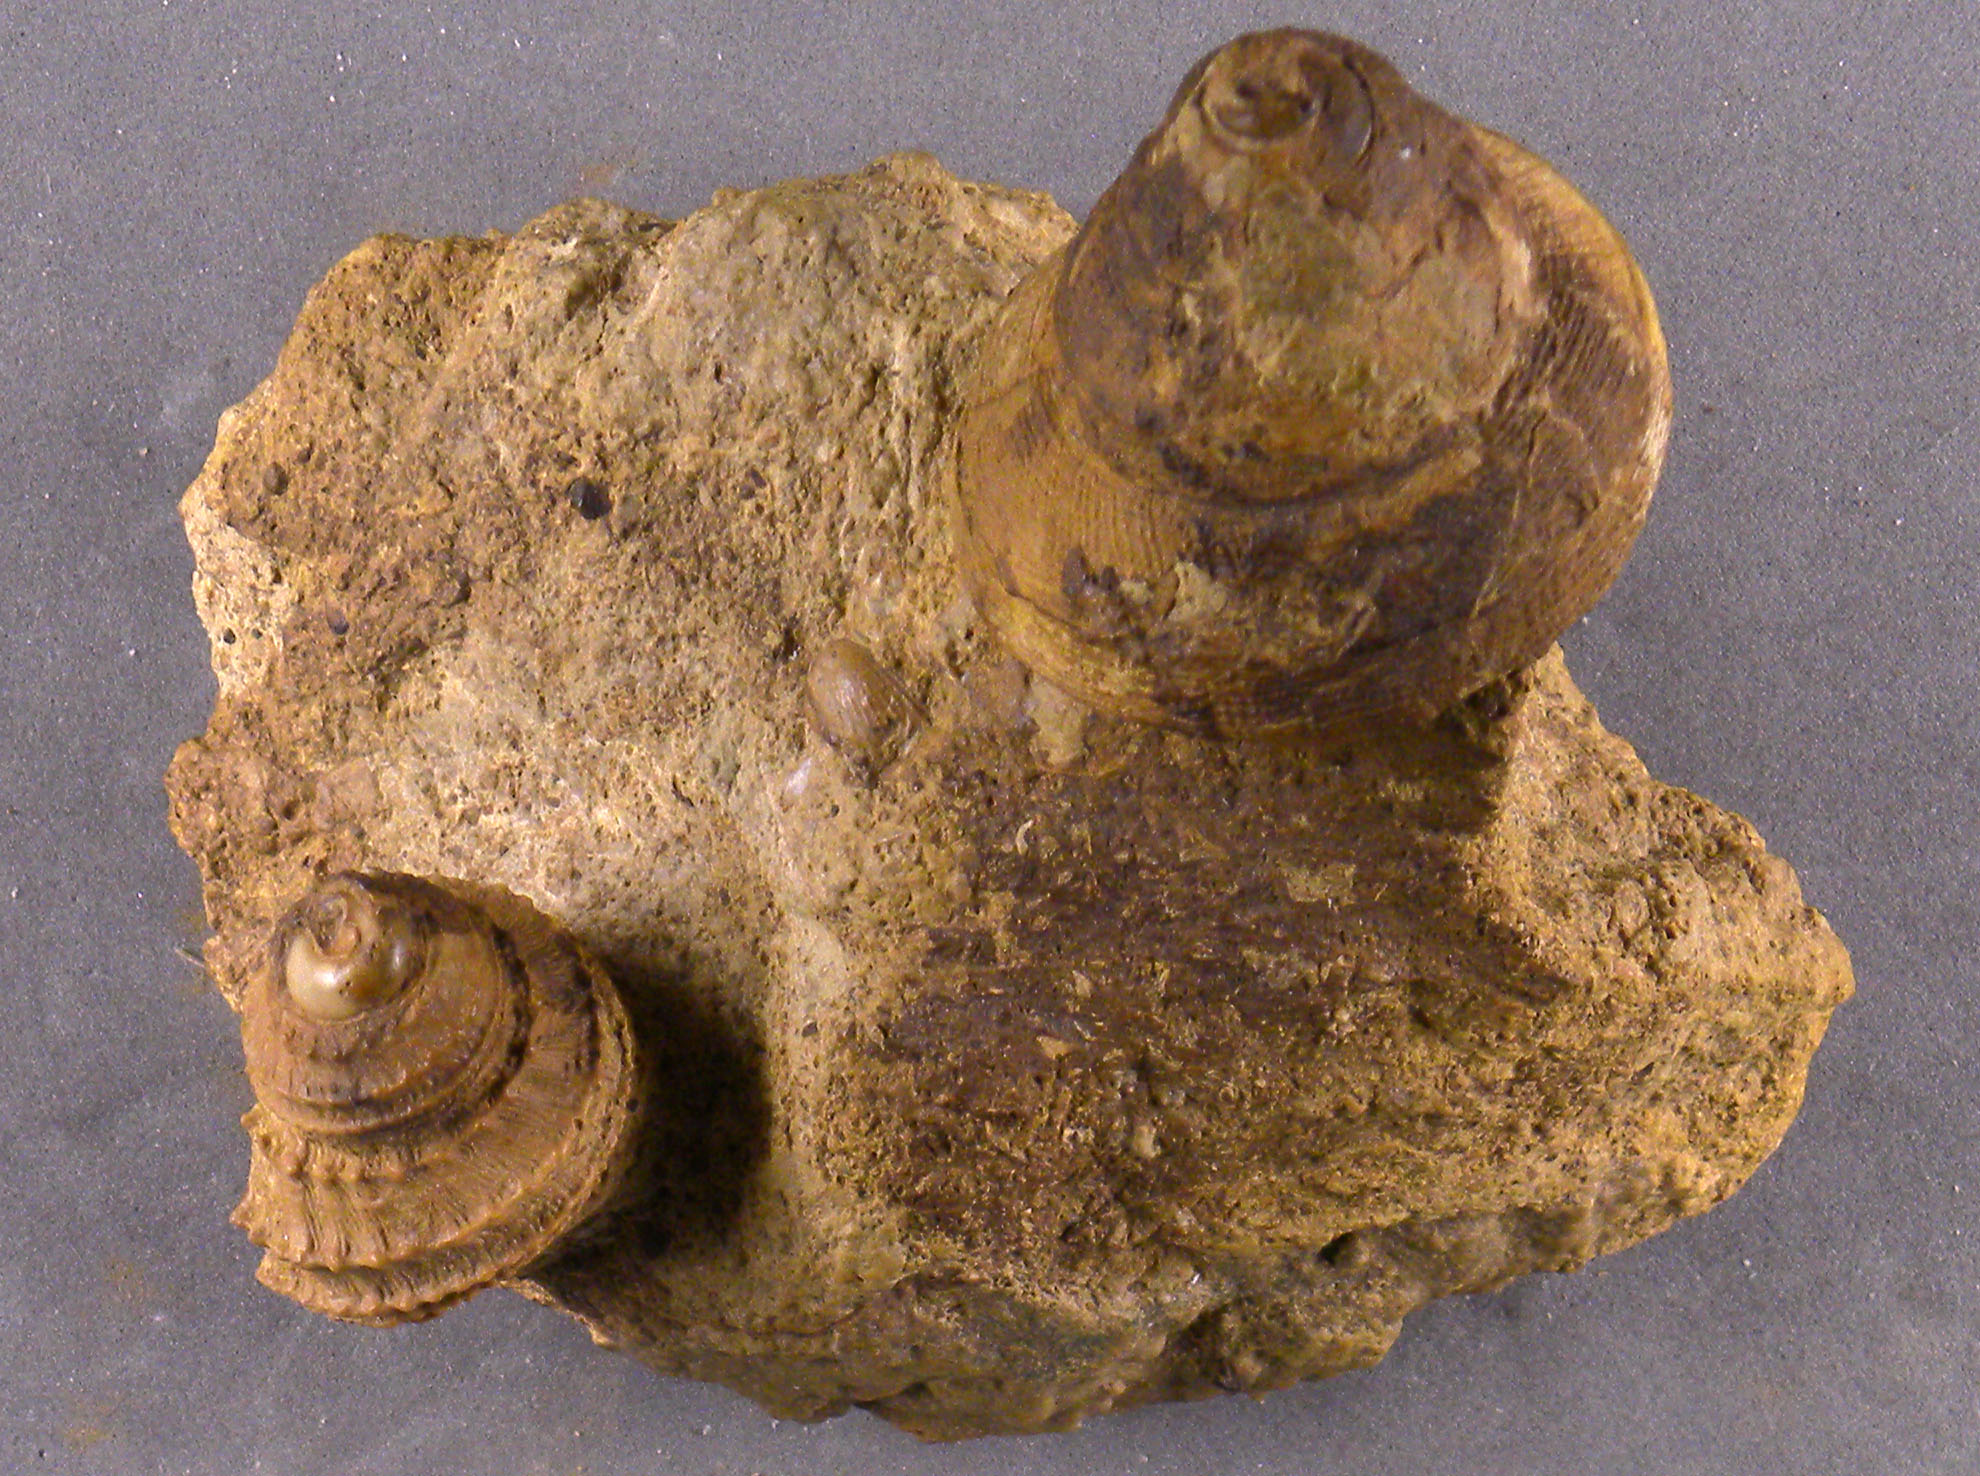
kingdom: Animalia
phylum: Mollusca
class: Gastropoda
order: Pleurotomariida
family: Pleurotomariidae
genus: Bathrotomaria
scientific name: Bathrotomaria Pleurotomaria subreticulata
